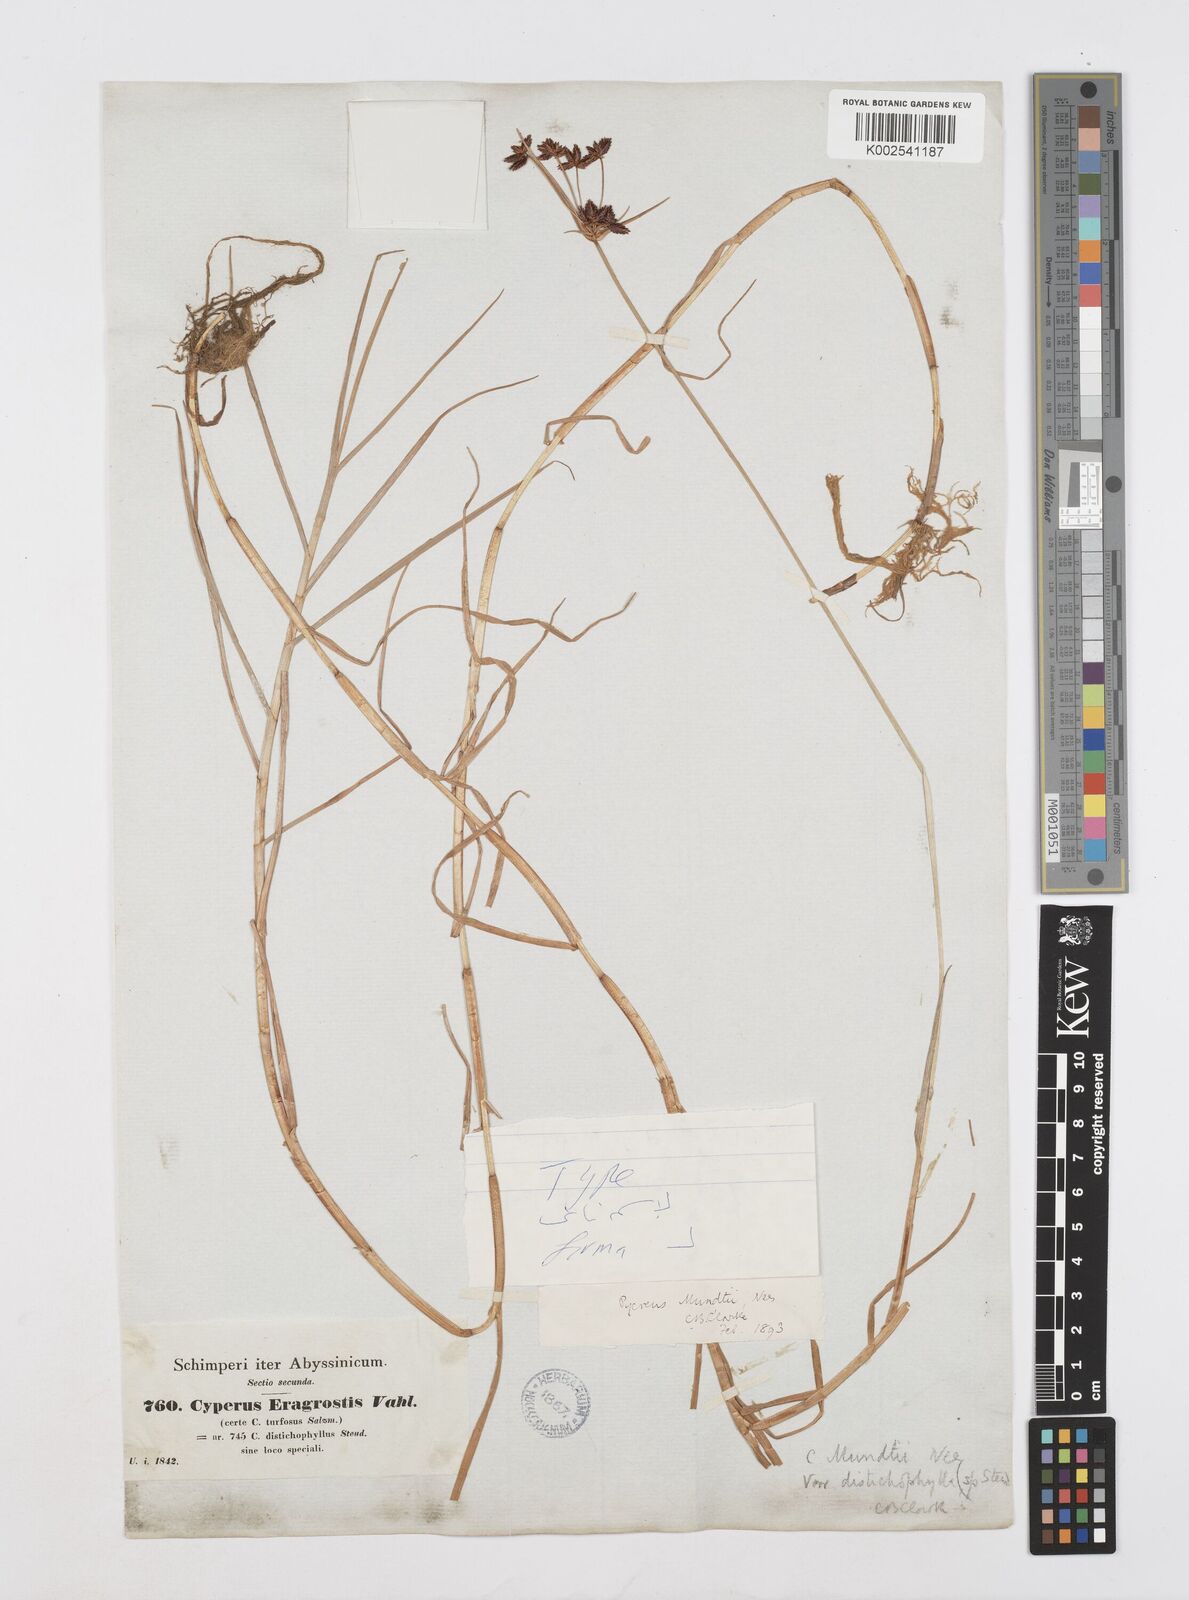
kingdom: Plantae
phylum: Tracheophyta
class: Liliopsida
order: Poales
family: Cyperaceae
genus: Cyperus
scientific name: Cyperus mundii
